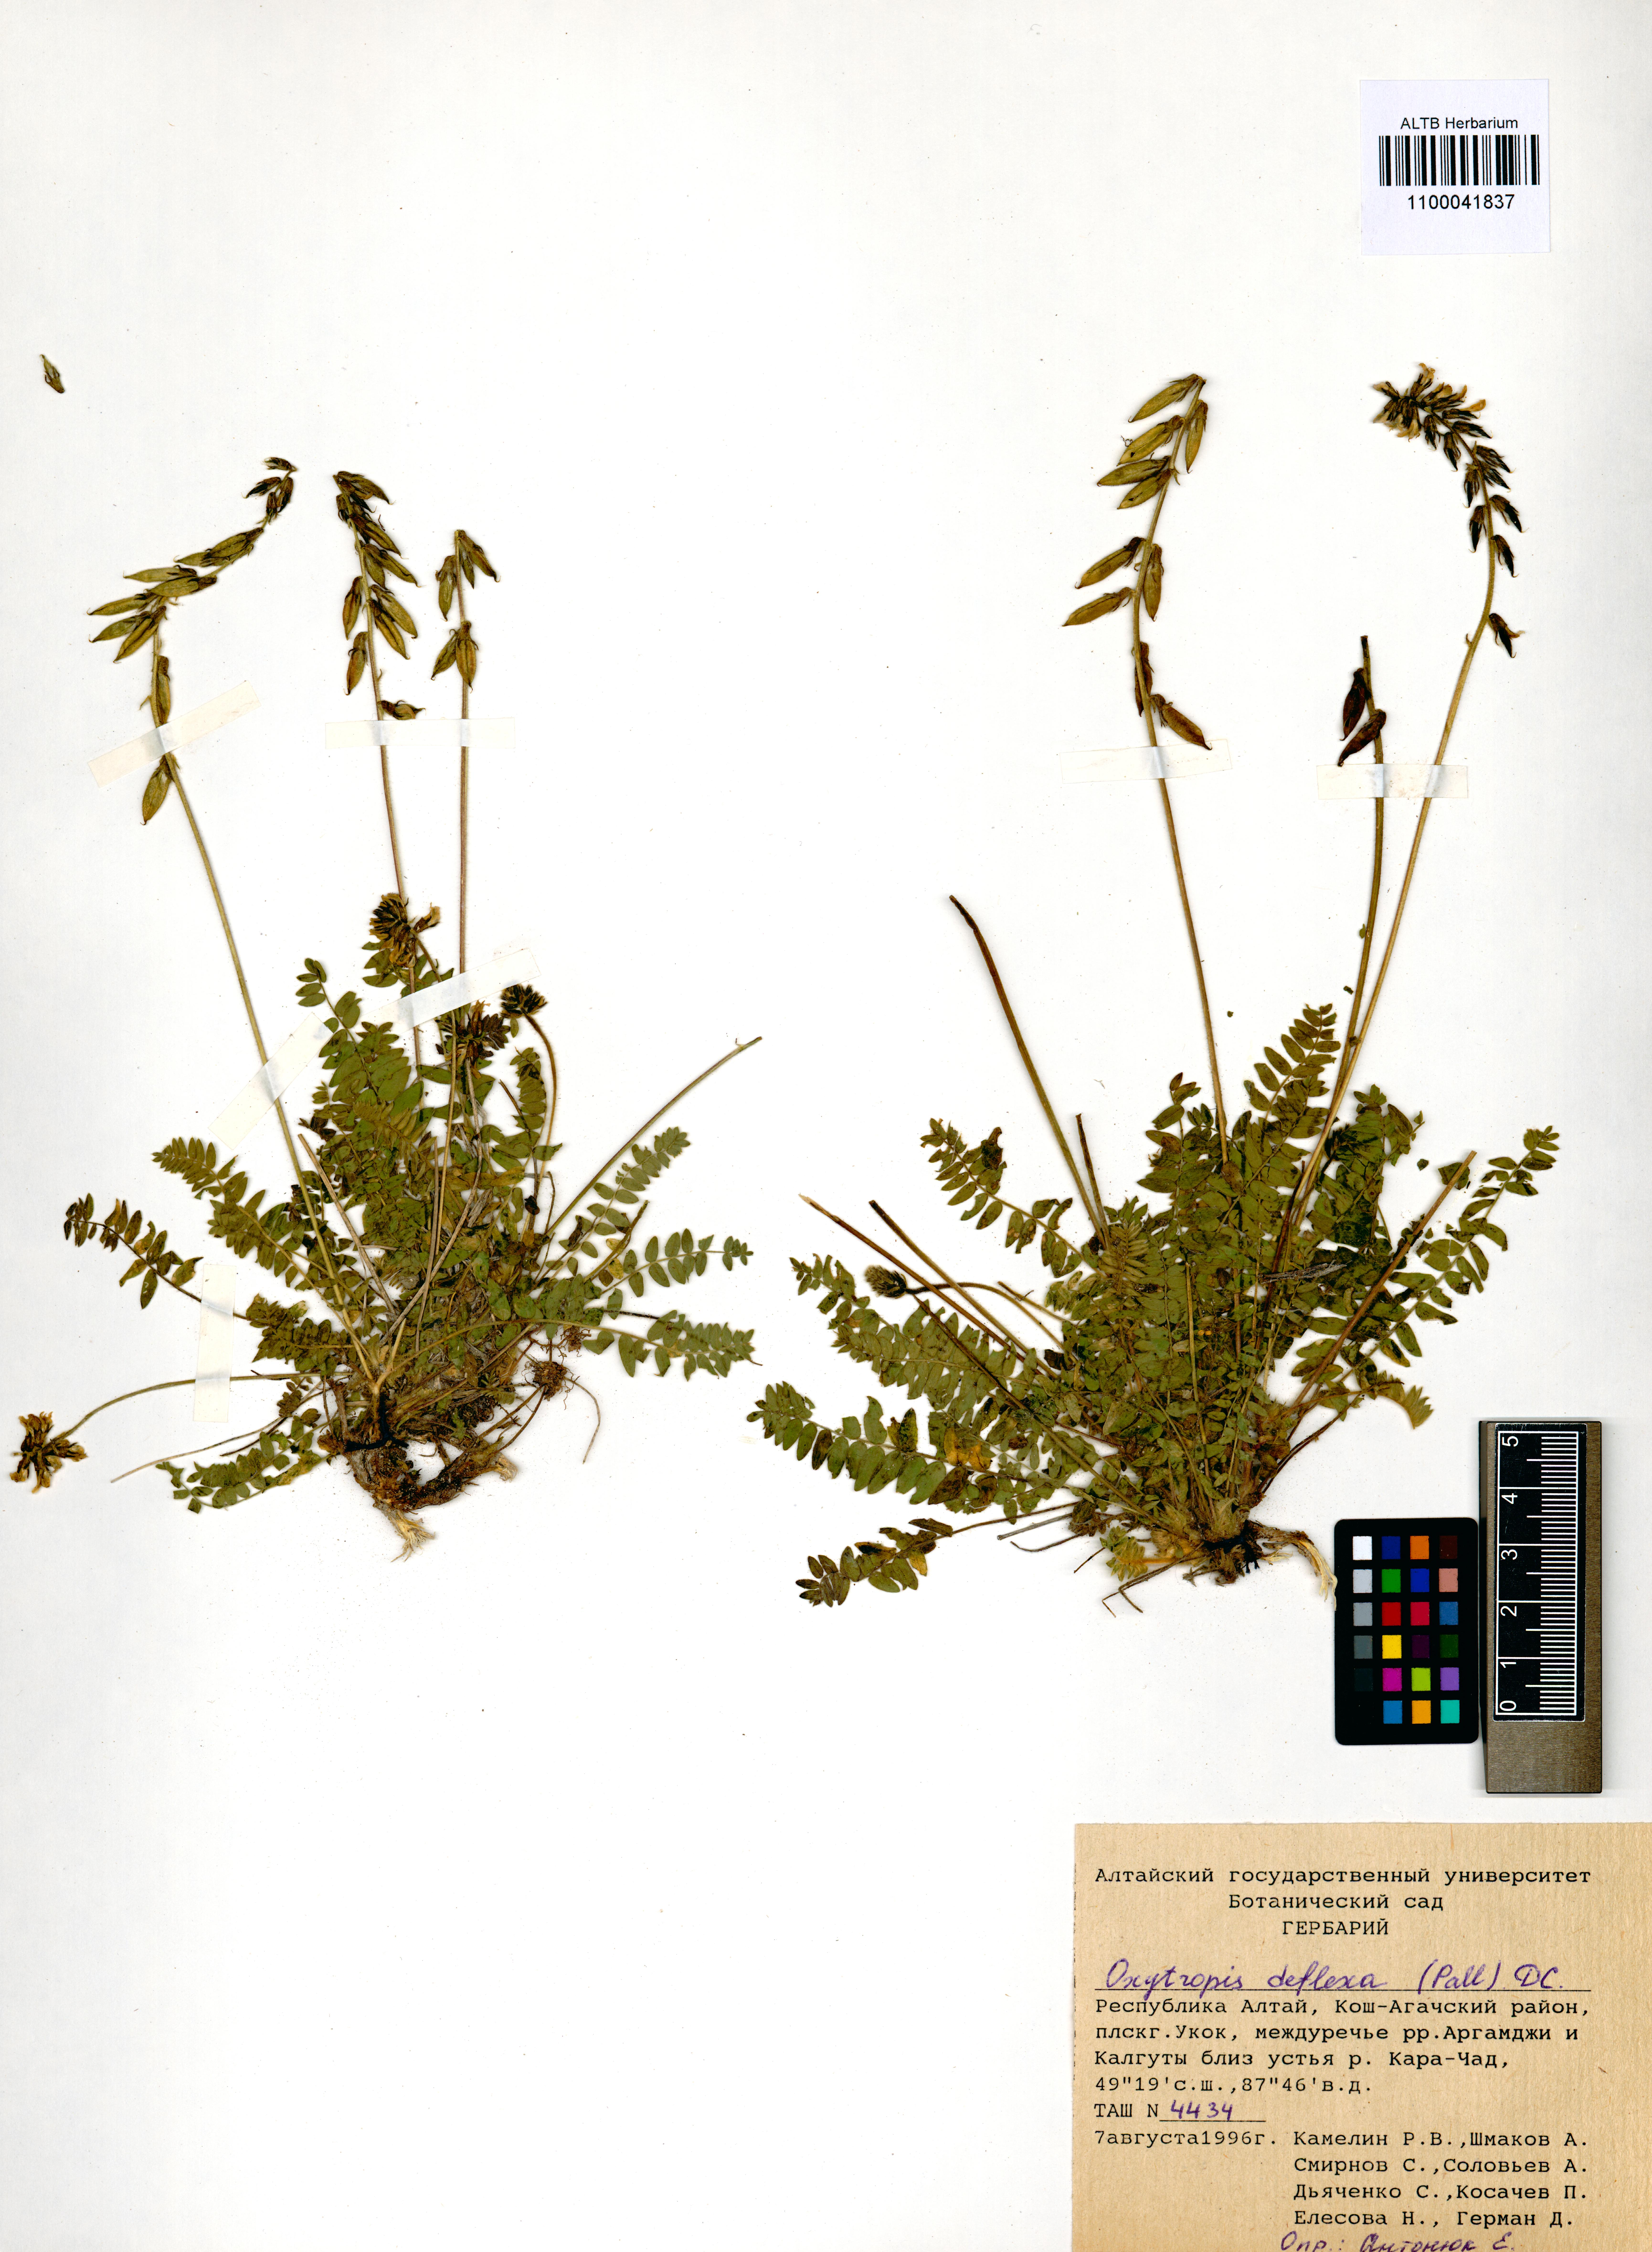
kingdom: Plantae
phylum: Tracheophyta
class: Magnoliopsida
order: Fabales
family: Fabaceae
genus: Oxytropis
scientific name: Oxytropis deflexa
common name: Stemmed oxytrope
